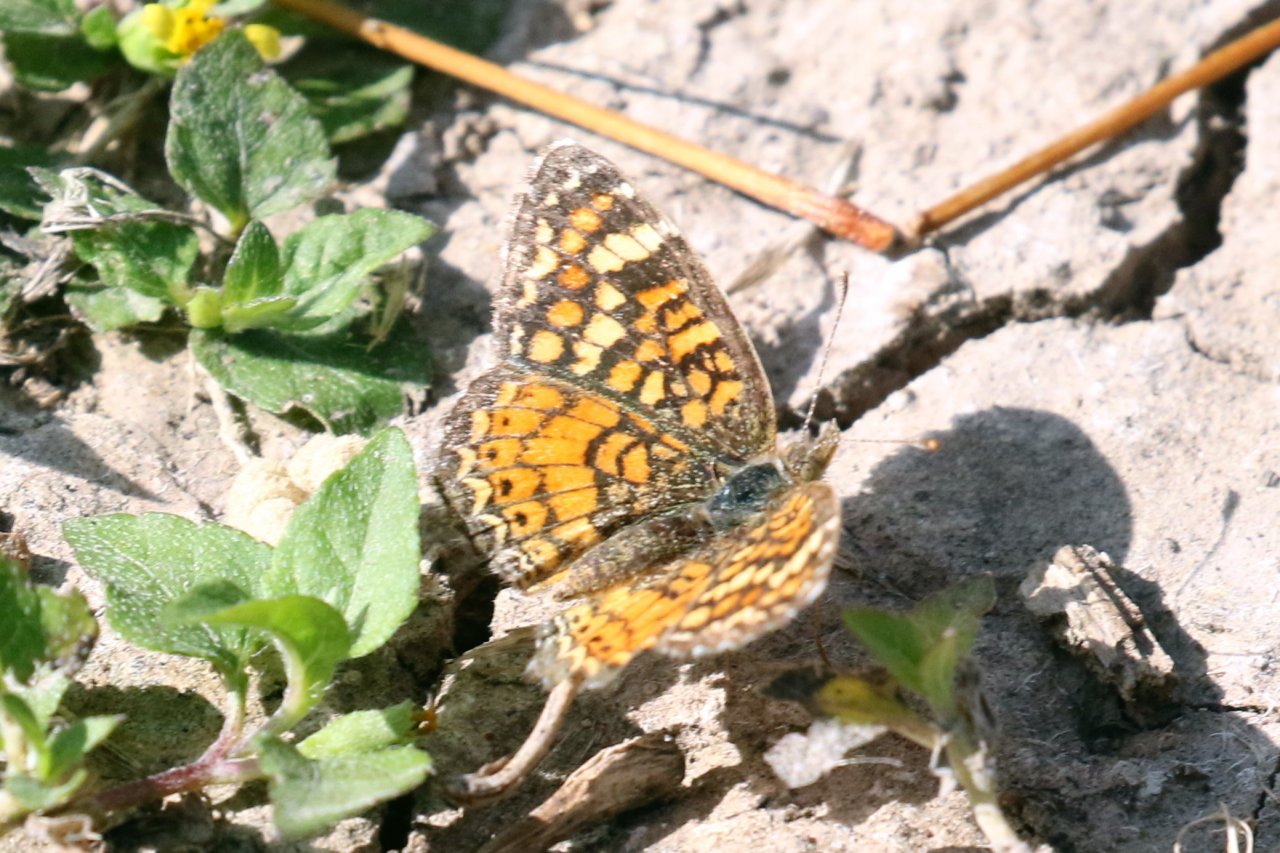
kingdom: Animalia
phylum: Arthropoda
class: Insecta
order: Lepidoptera
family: Nymphalidae
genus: Phyciodes
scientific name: Phyciodes vesta
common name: Vesta Crescent
